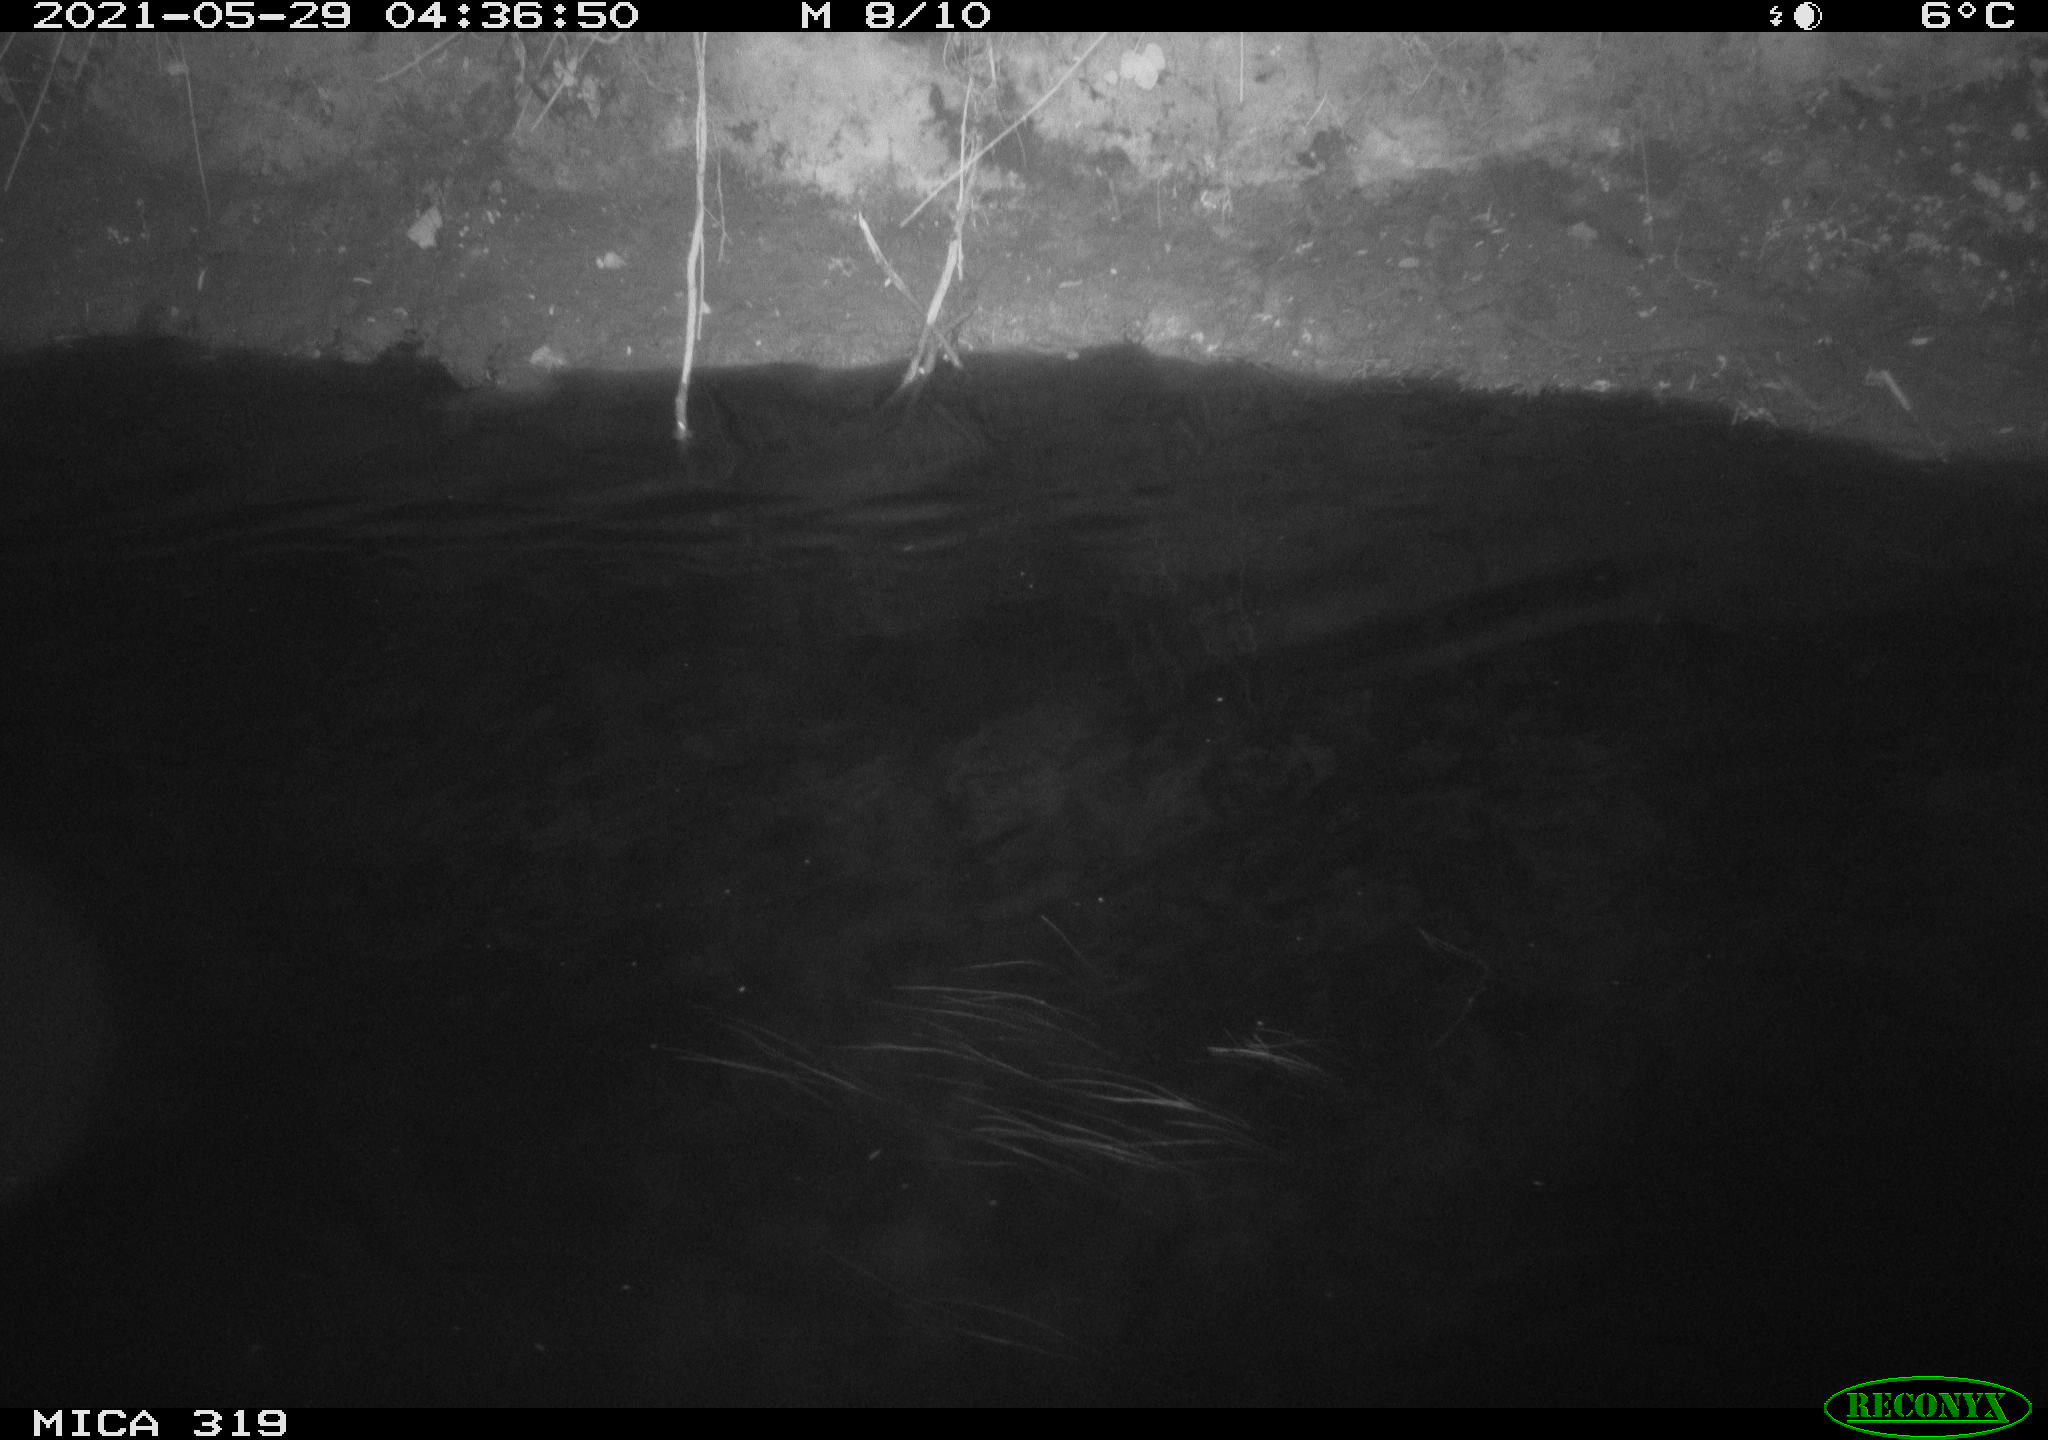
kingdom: Animalia
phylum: Chordata
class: Aves
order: Anseriformes
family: Anatidae
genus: Anas
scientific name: Anas platyrhynchos
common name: Mallard
